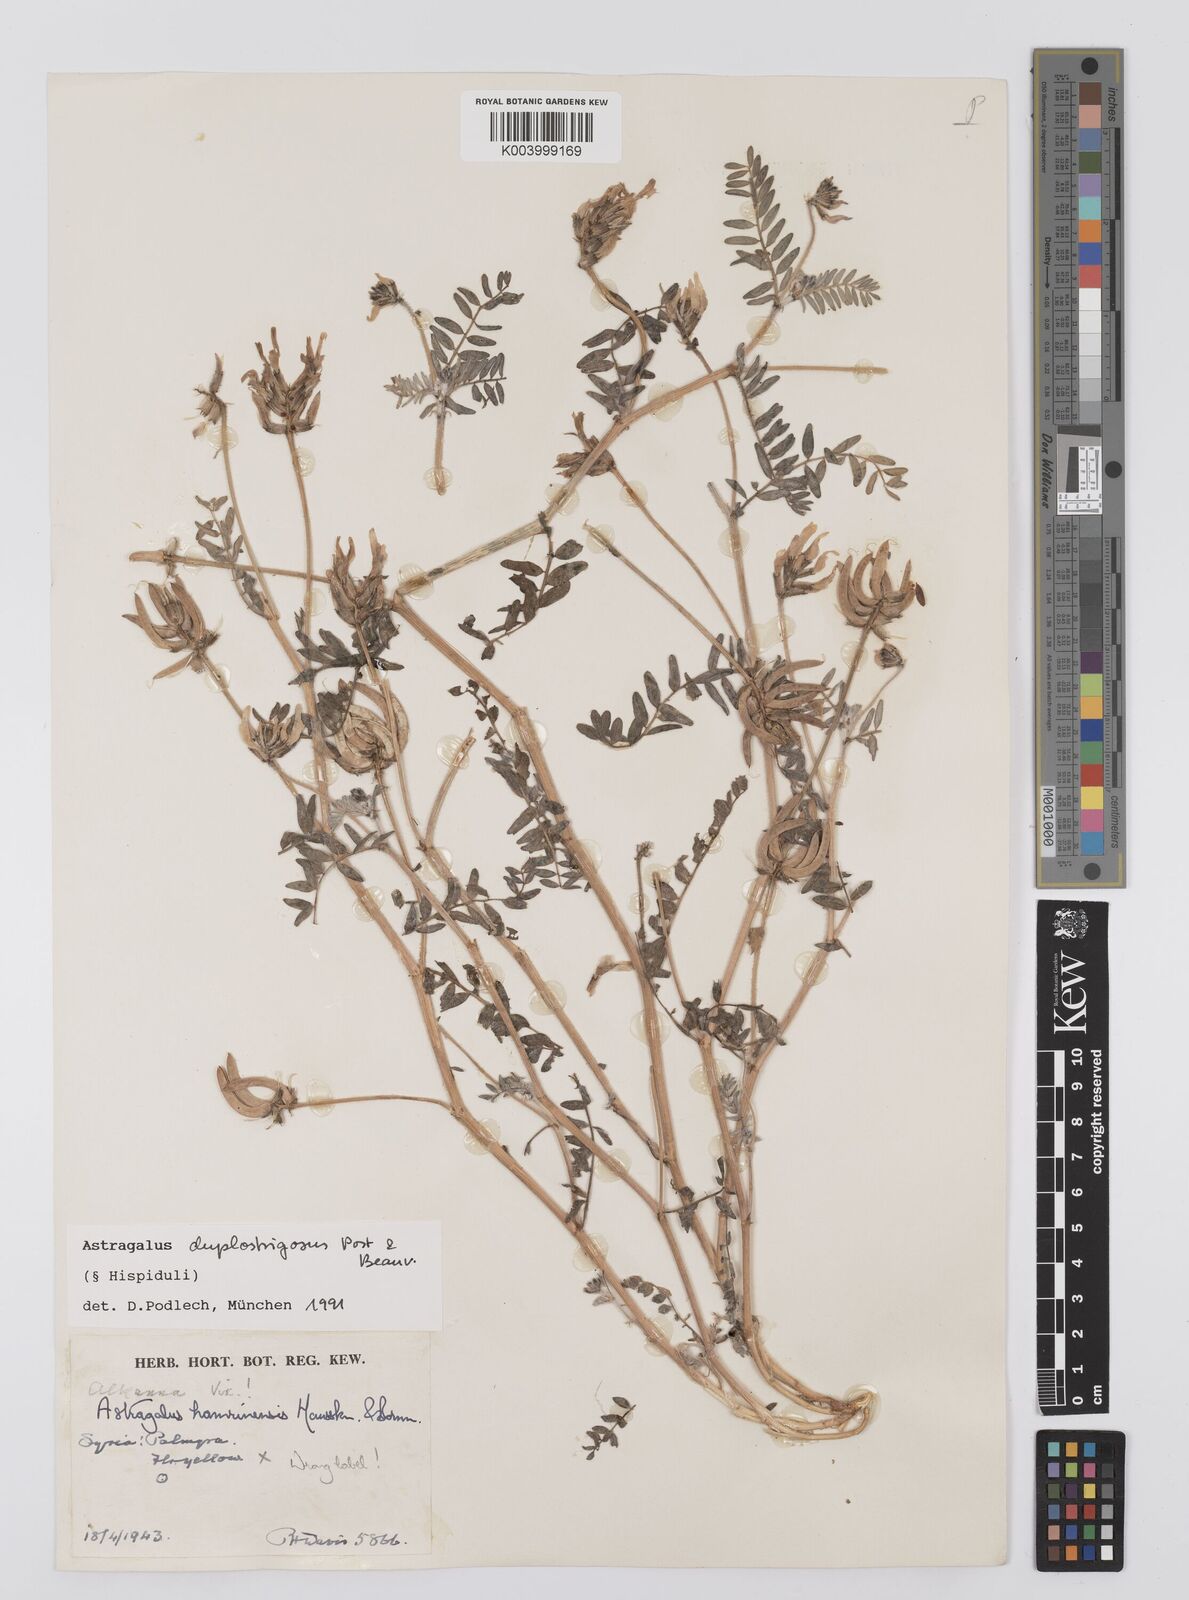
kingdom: Plantae
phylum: Tracheophyta
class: Magnoliopsida
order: Fabales
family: Fabaceae
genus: Astragalus
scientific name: Astragalus duplostrigosus
